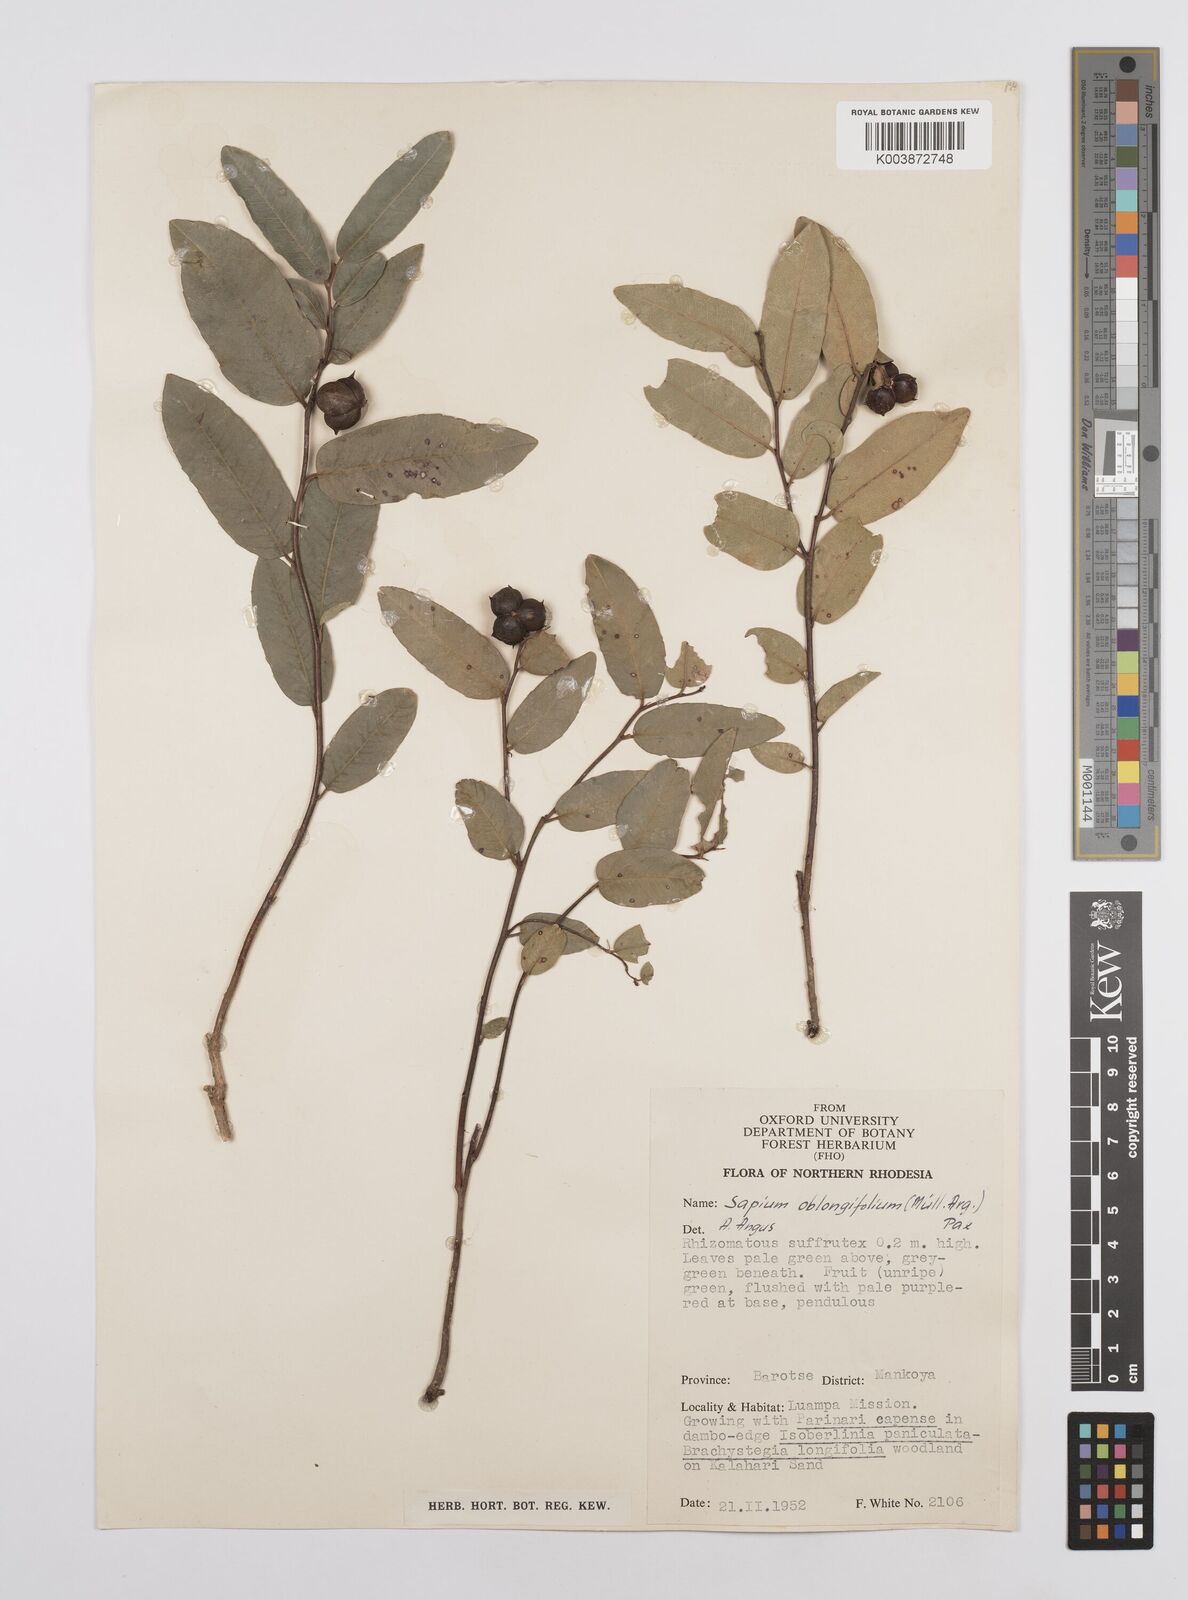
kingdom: Plantae
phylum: Tracheophyta
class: Magnoliopsida
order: Malpighiales
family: Euphorbiaceae
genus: Sclerocroton
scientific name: Sclerocroton oblongifolius
